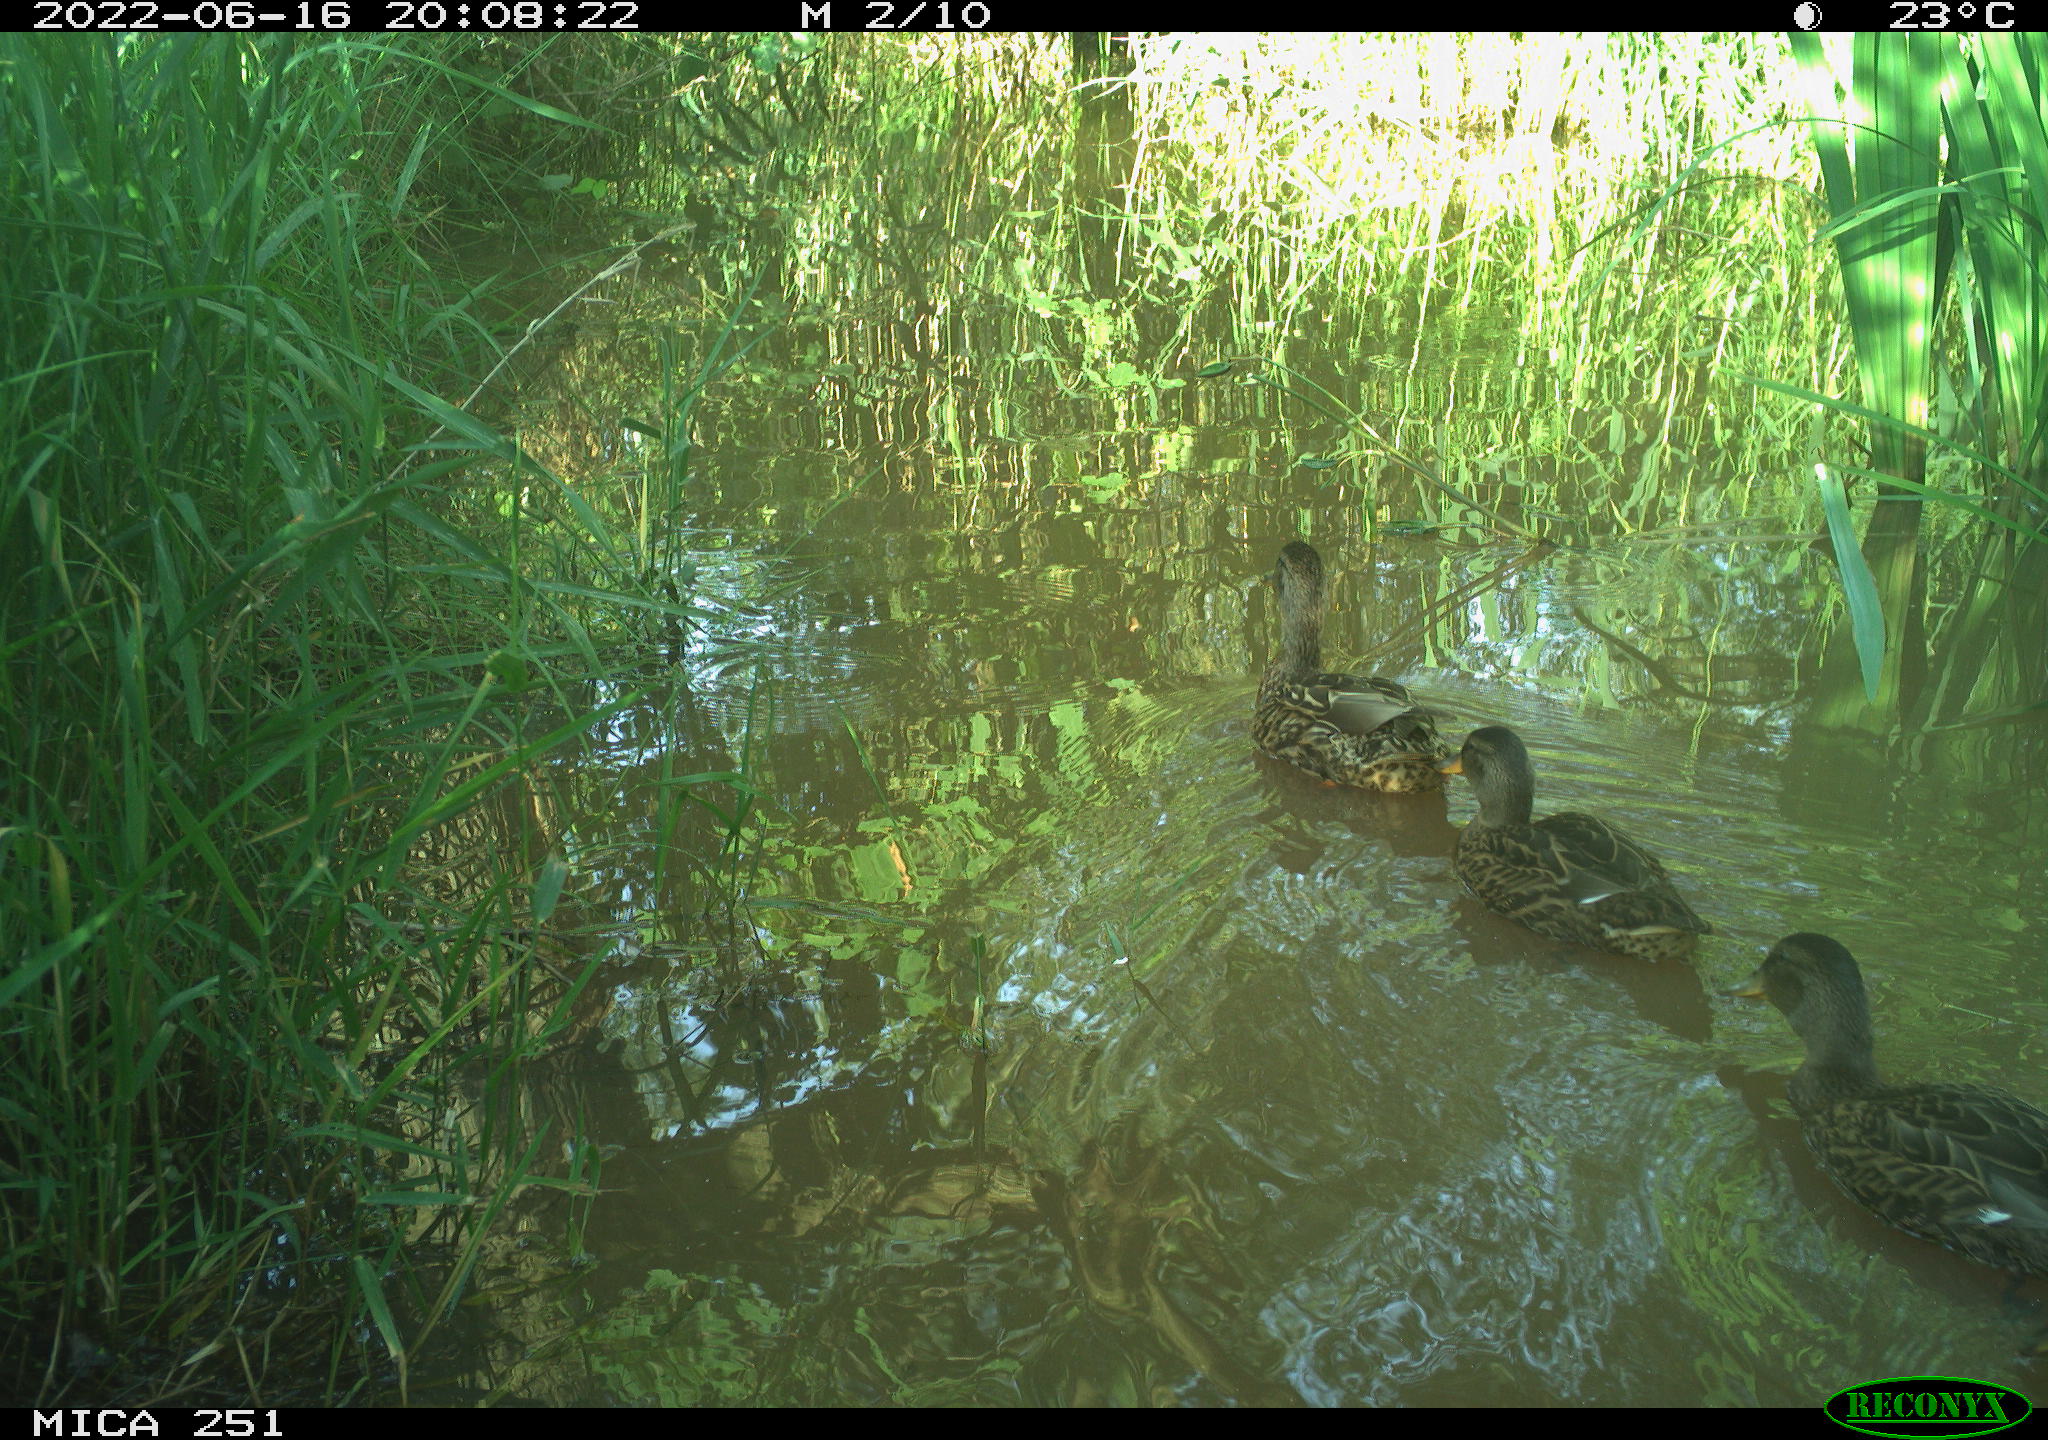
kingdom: Animalia
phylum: Chordata
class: Aves
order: Anseriformes
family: Anatidae
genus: Anas
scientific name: Anas platyrhynchos
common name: Mallard
